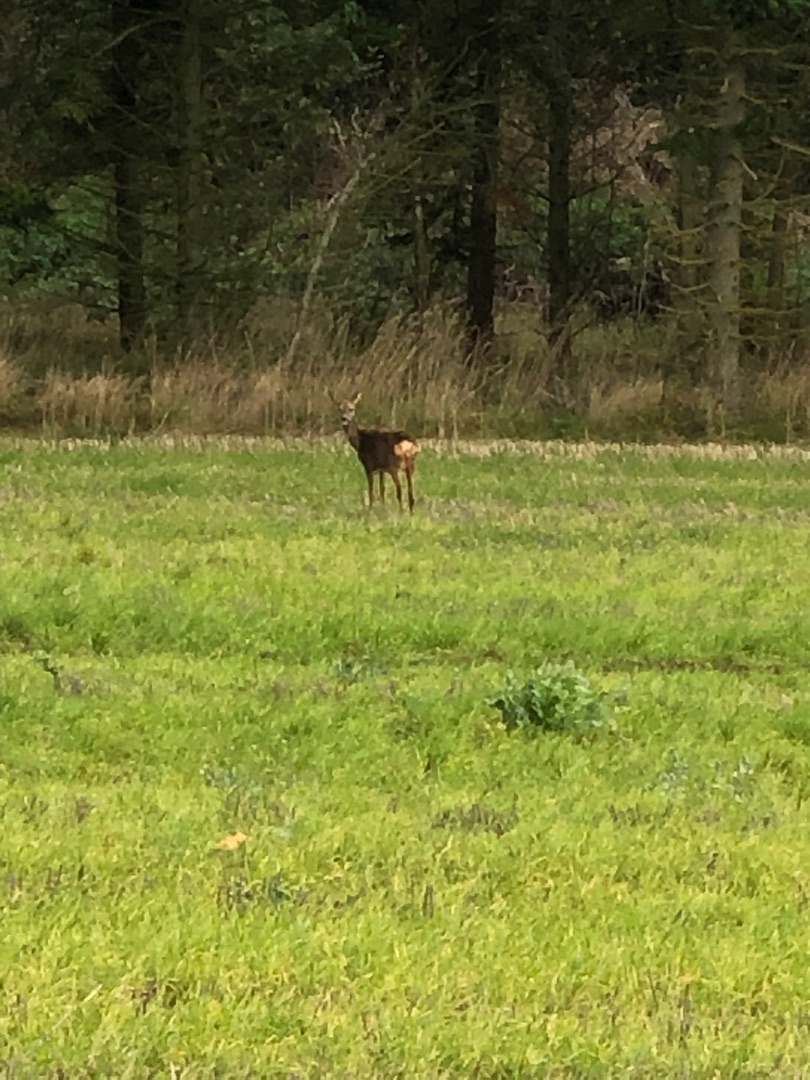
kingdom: Animalia
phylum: Chordata
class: Mammalia
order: Artiodactyla
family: Cervidae
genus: Capreolus
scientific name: Capreolus capreolus
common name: Rådyr
